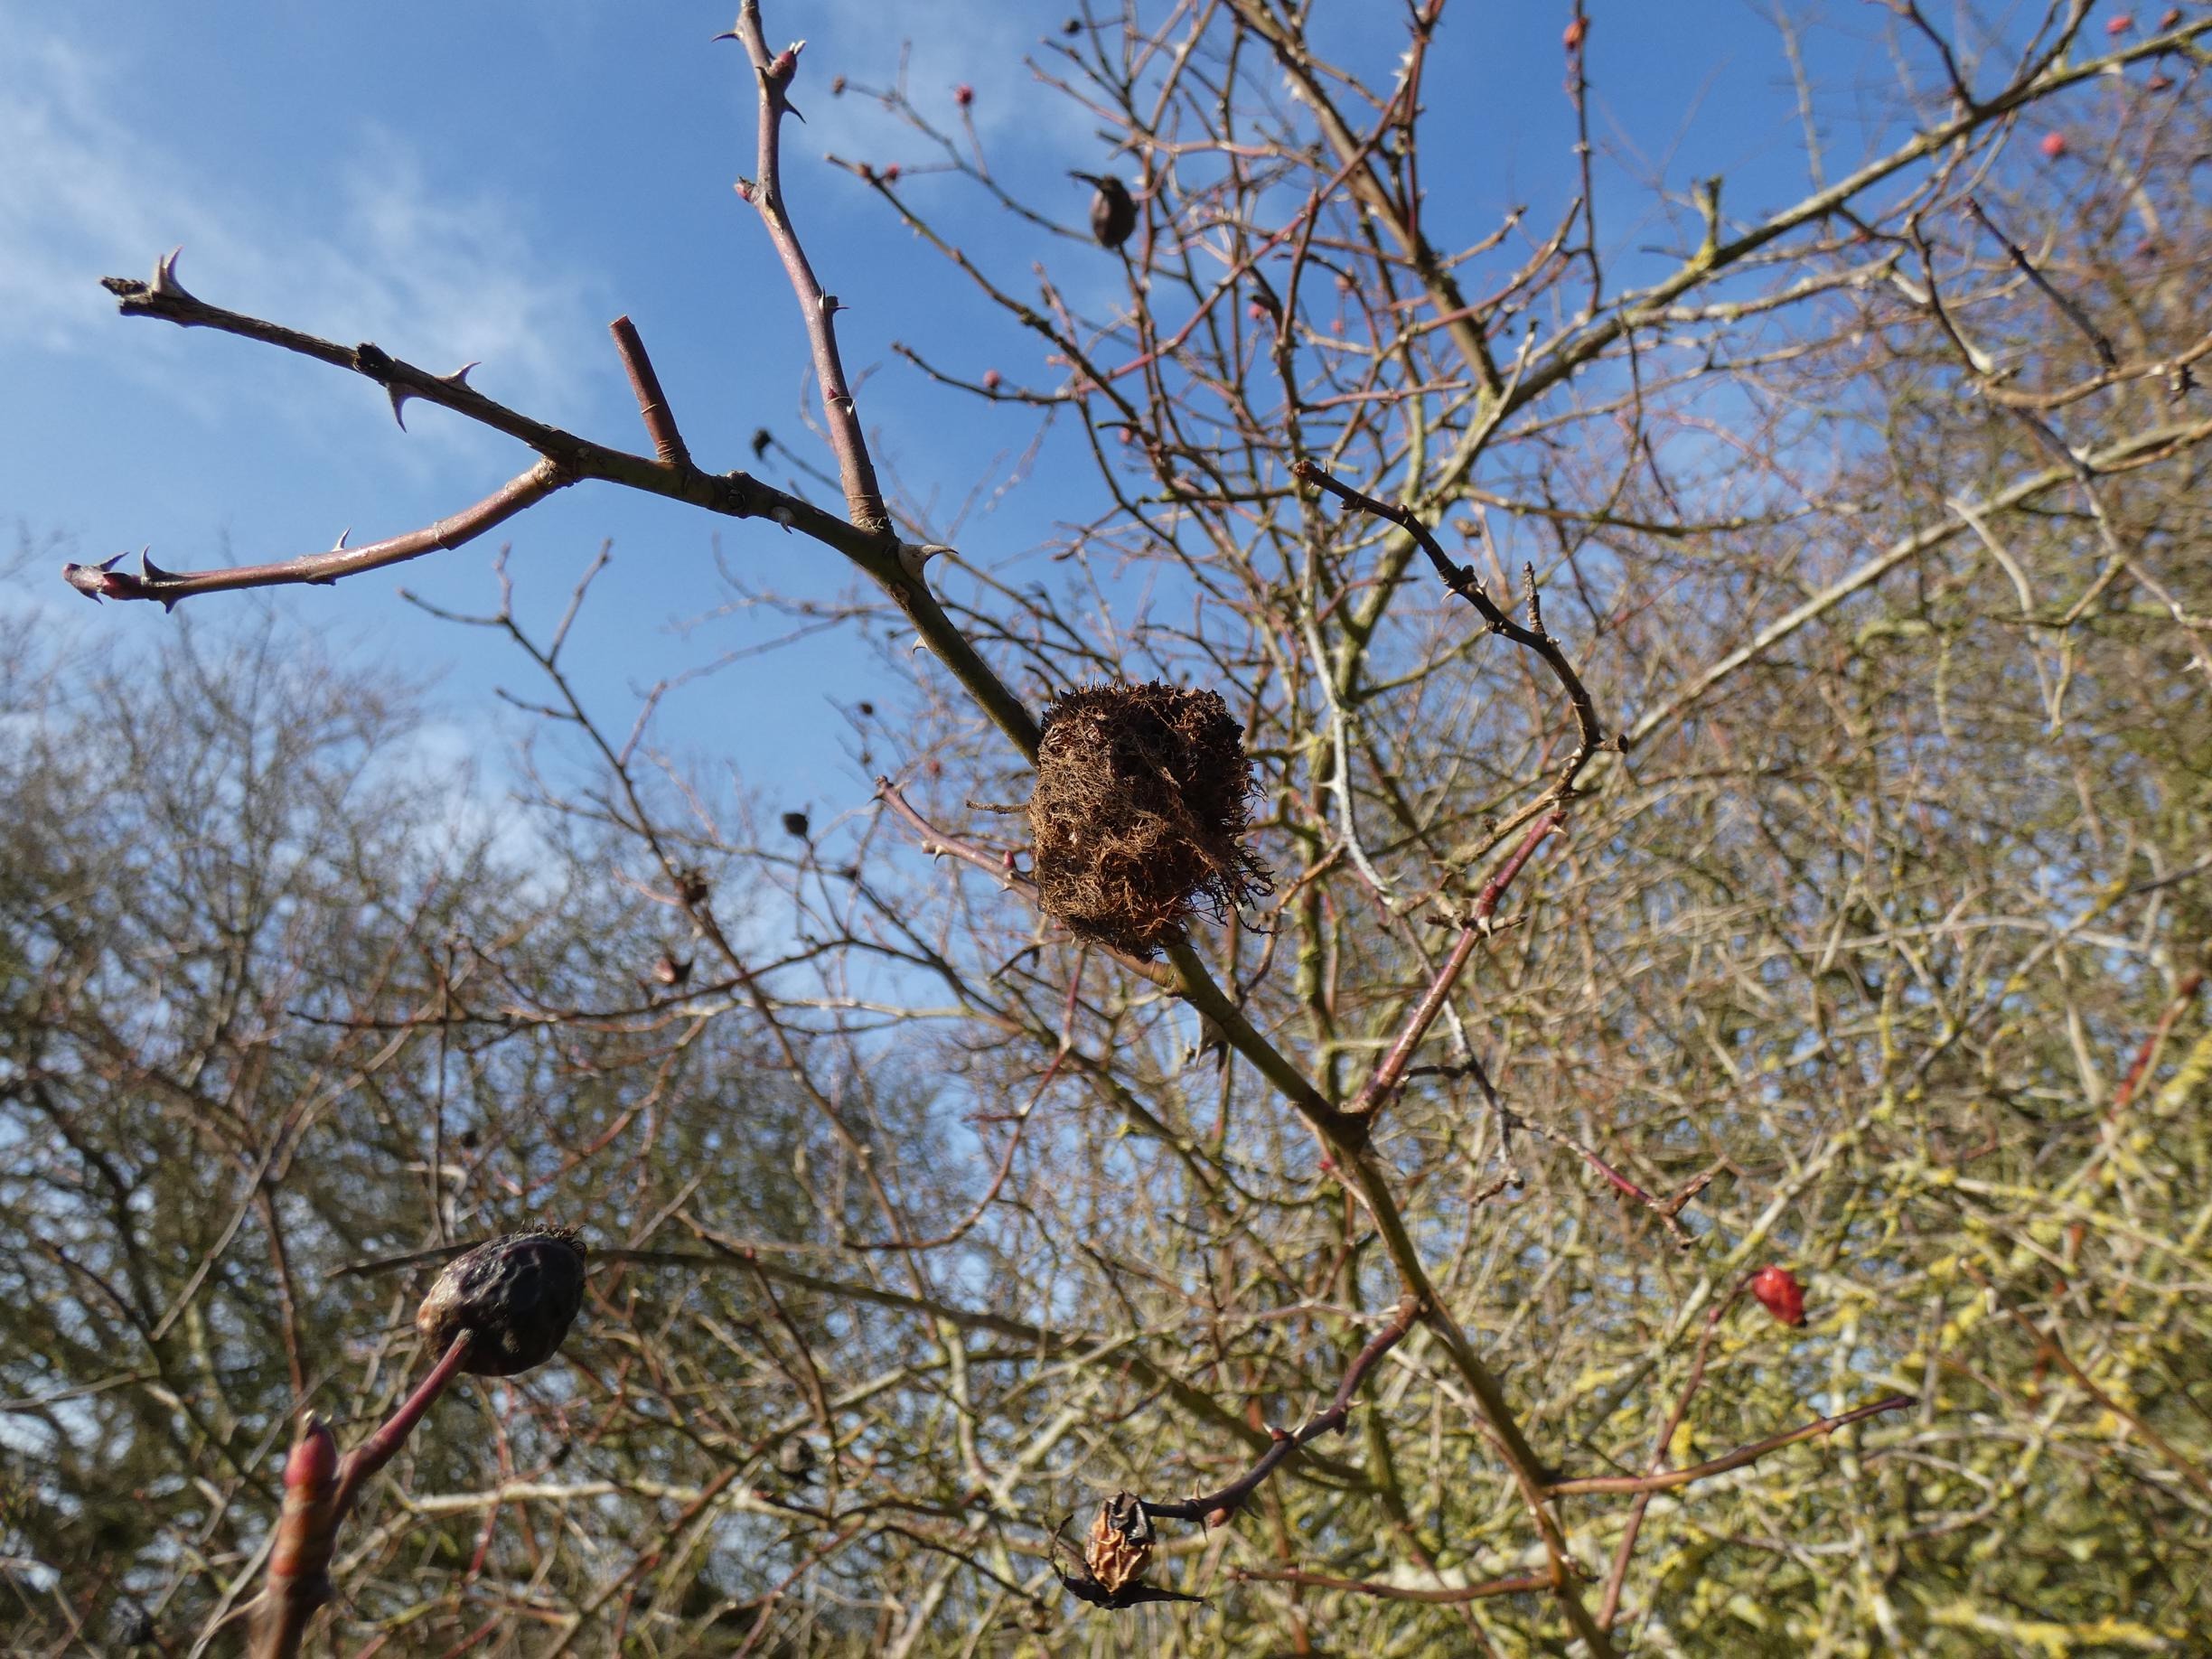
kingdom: Animalia
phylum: Arthropoda
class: Insecta
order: Hymenoptera
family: Cynipidae
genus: Diplolepis
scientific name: Diplolepis rosae
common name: Bedeguargalhveps
